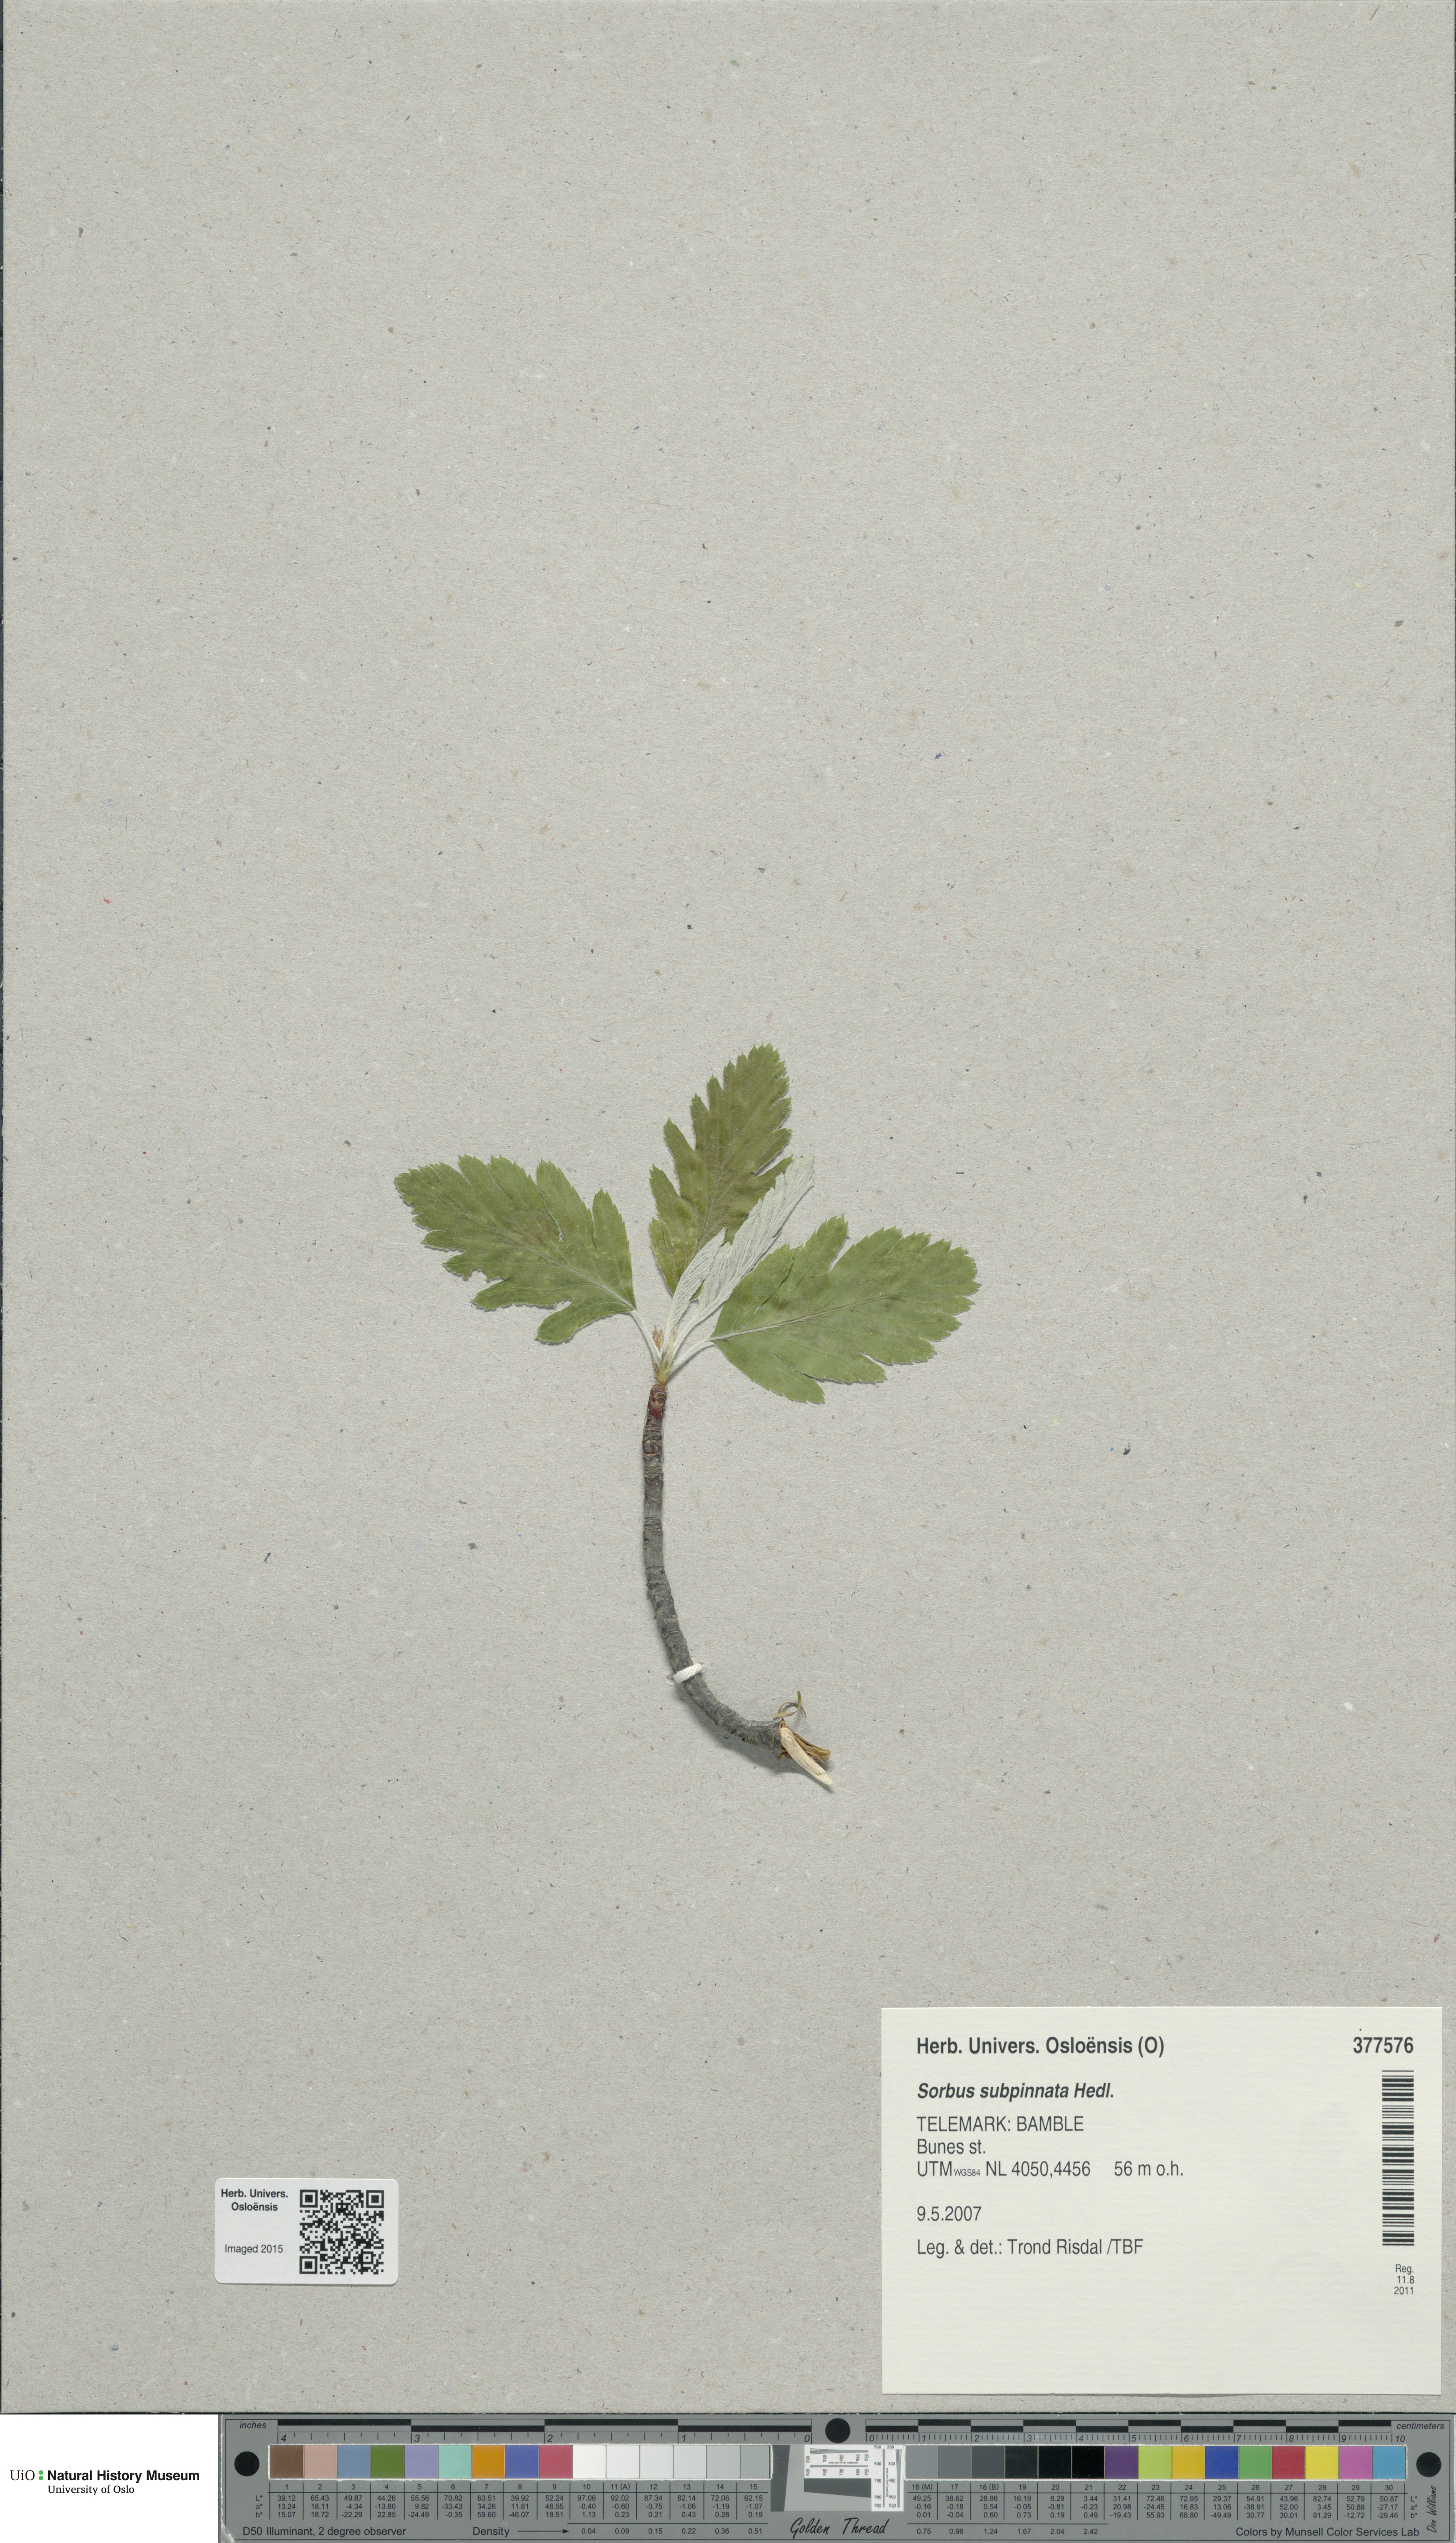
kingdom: Plantae
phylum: Tracheophyta
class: Magnoliopsida
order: Rosales
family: Rosaceae
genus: Hedlundia
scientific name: Hedlundia subpinnata
